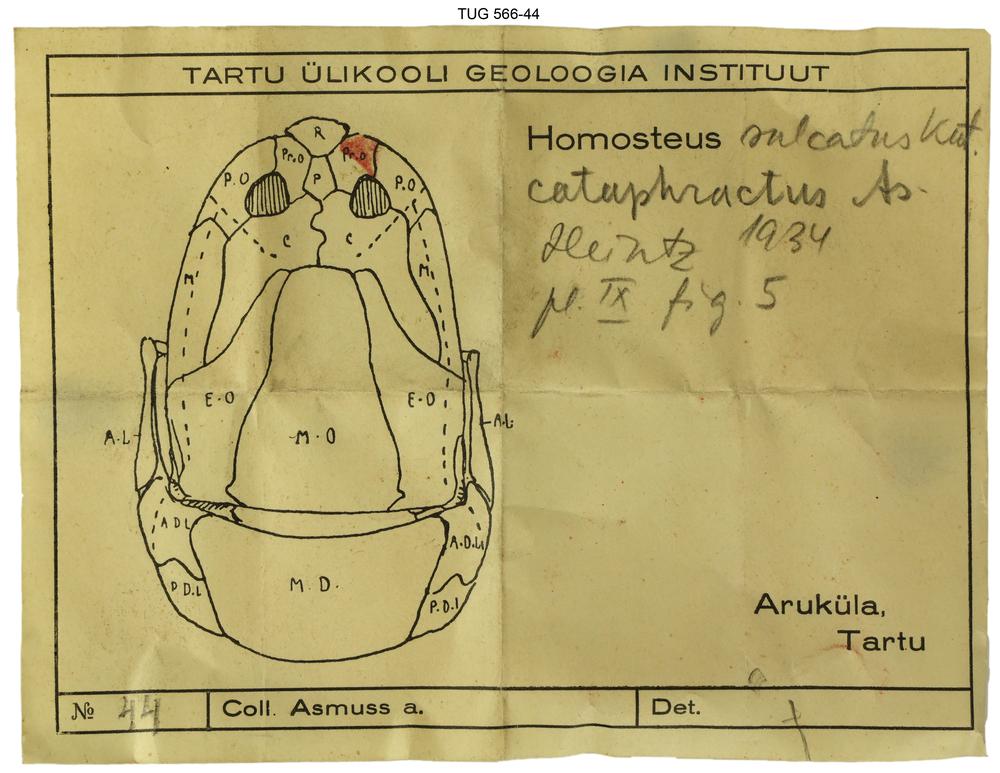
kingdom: Animalia
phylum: Chordata
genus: Homosteus
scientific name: Homosteus sulcatus
